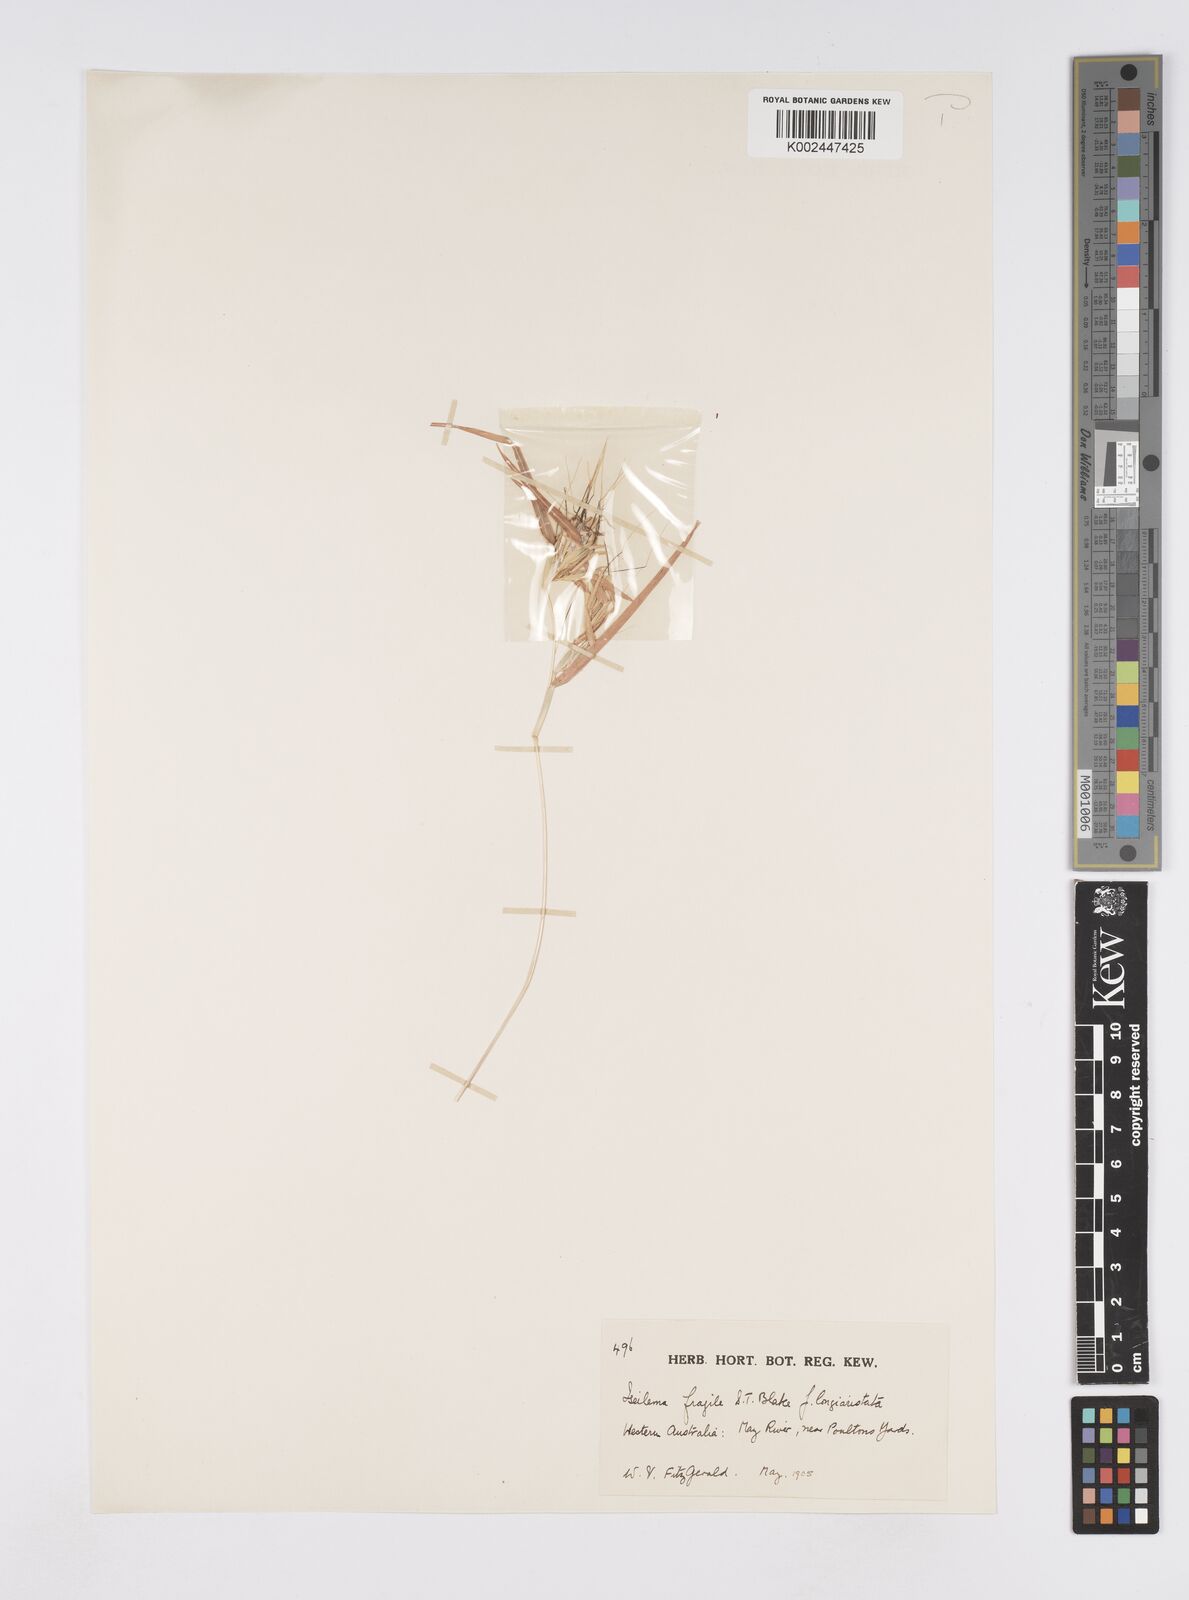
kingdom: Plantae
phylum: Tracheophyta
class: Liliopsida
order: Poales
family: Poaceae
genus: Iseilema
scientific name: Iseilema fragile
